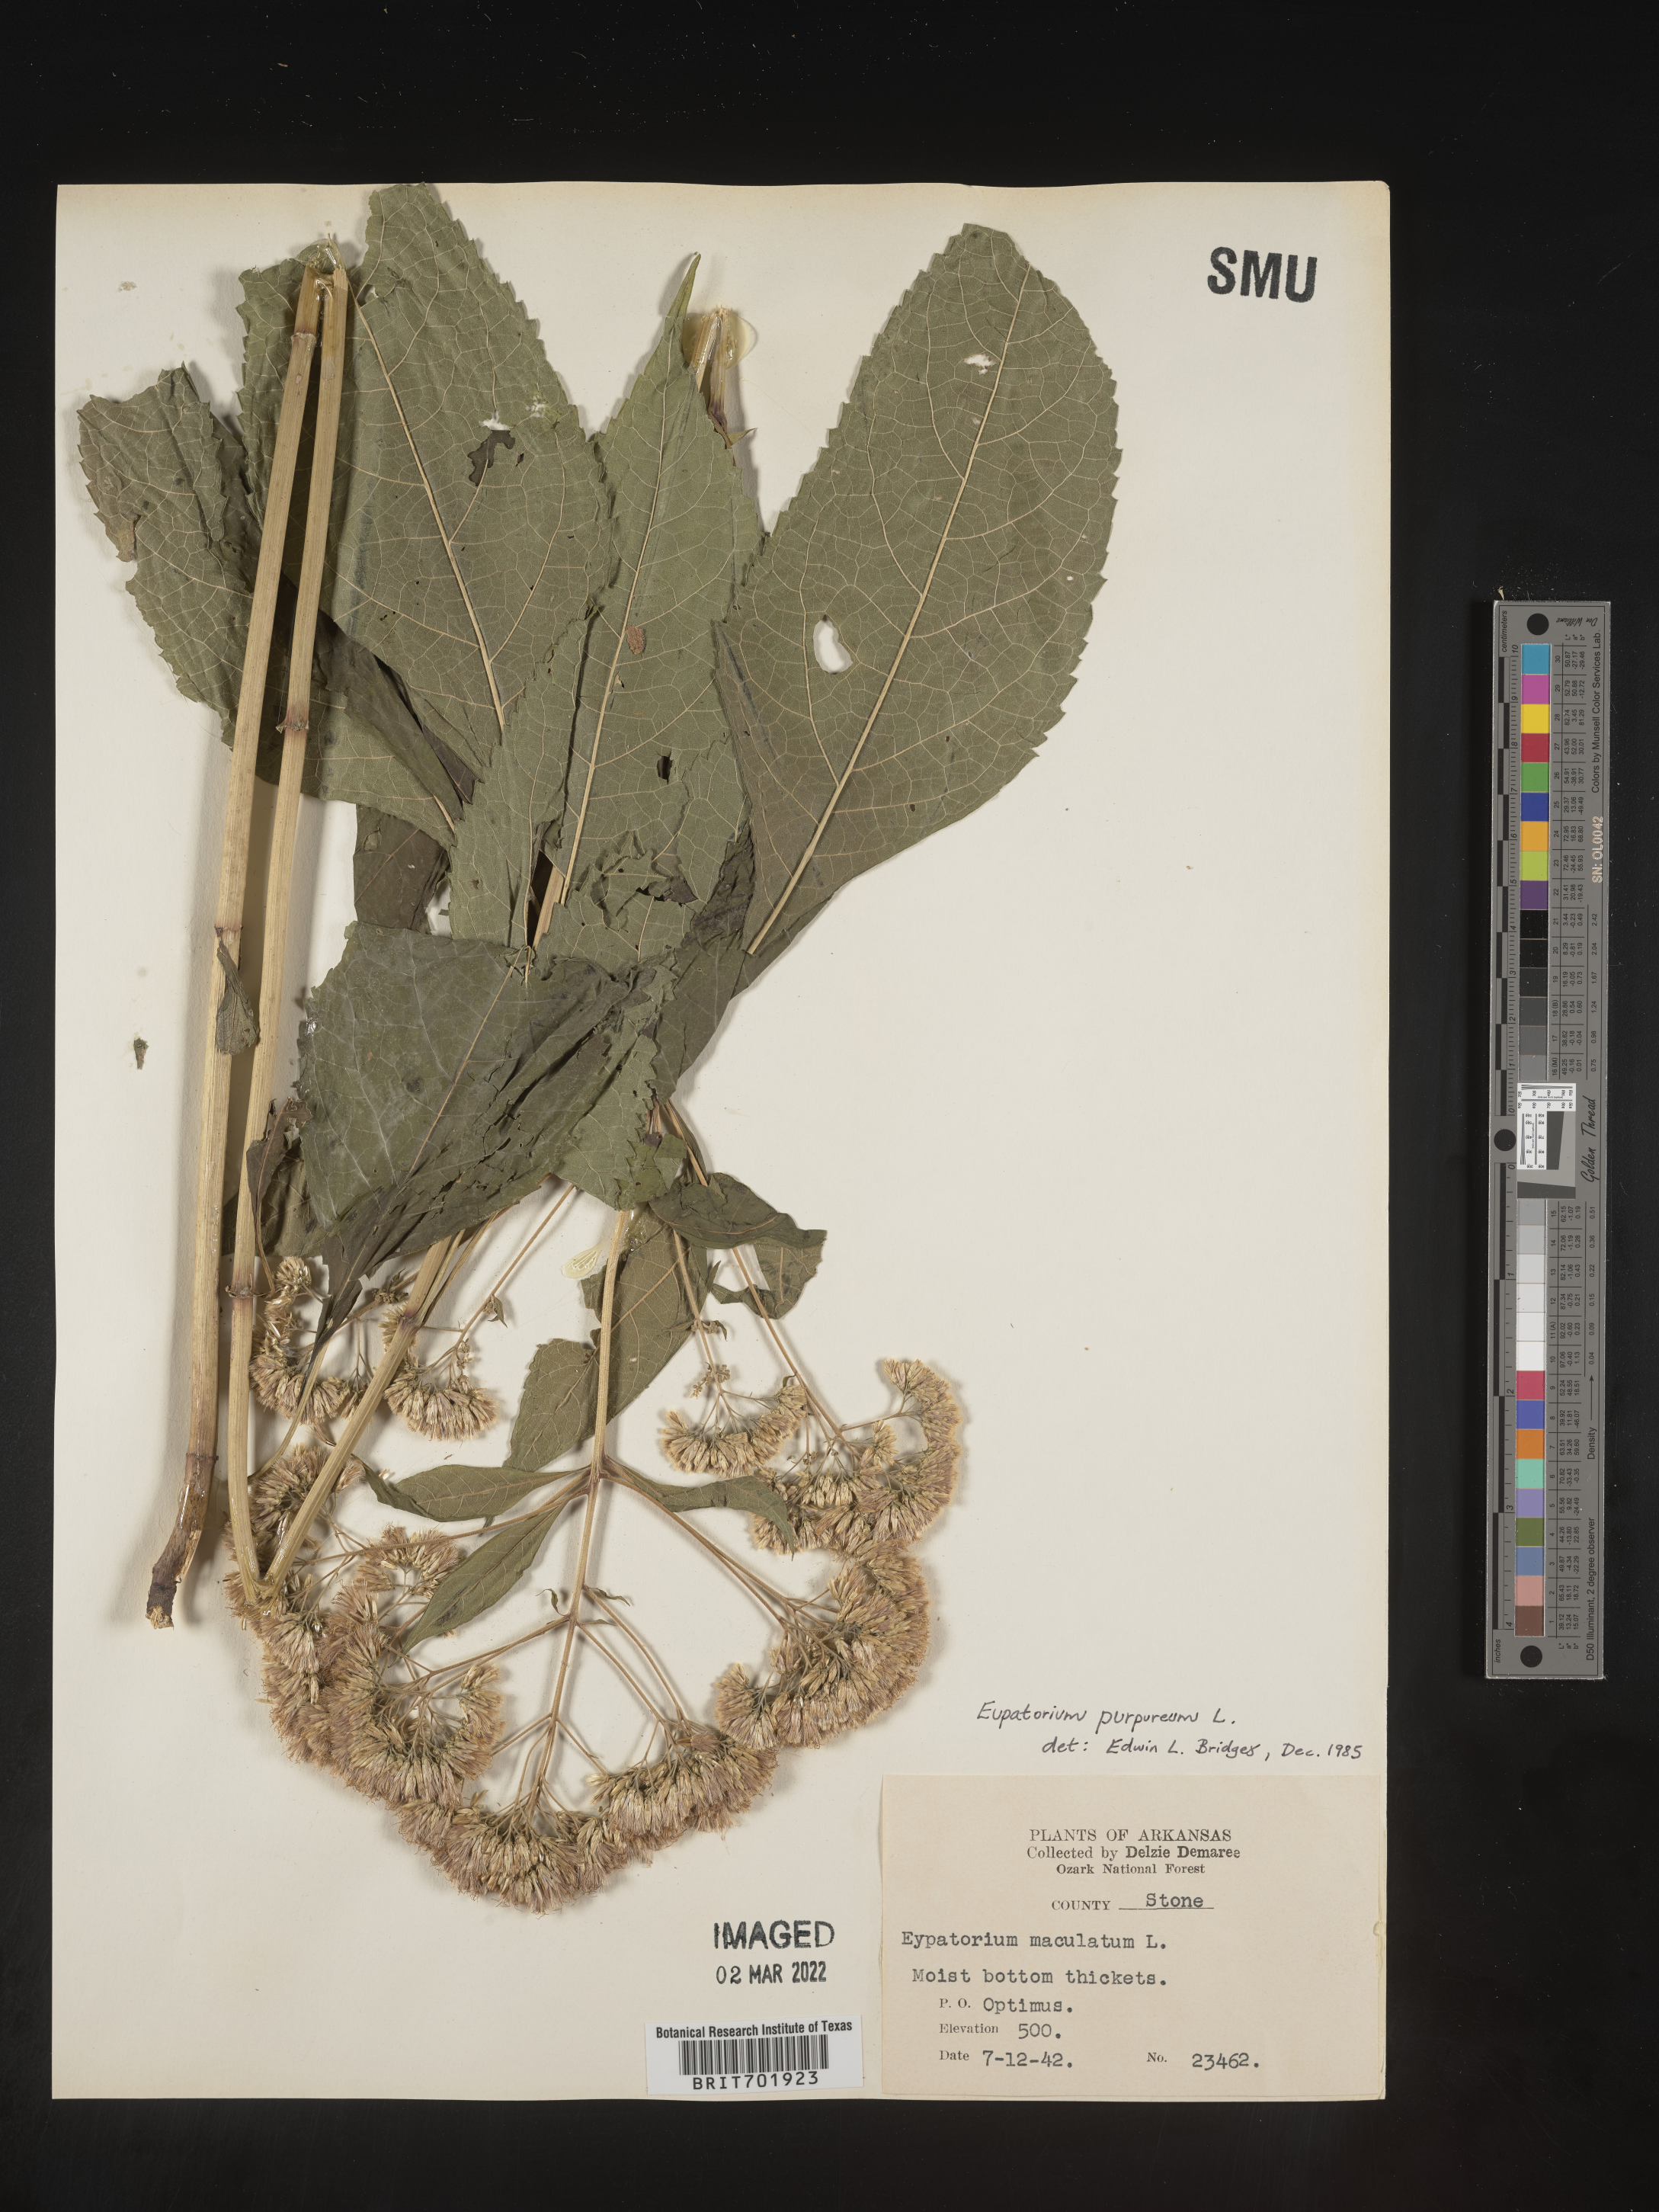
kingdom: Plantae
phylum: Tracheophyta
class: Magnoliopsida
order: Asterales
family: Asteraceae
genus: Eupatorium
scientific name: Eupatorium quaternum
